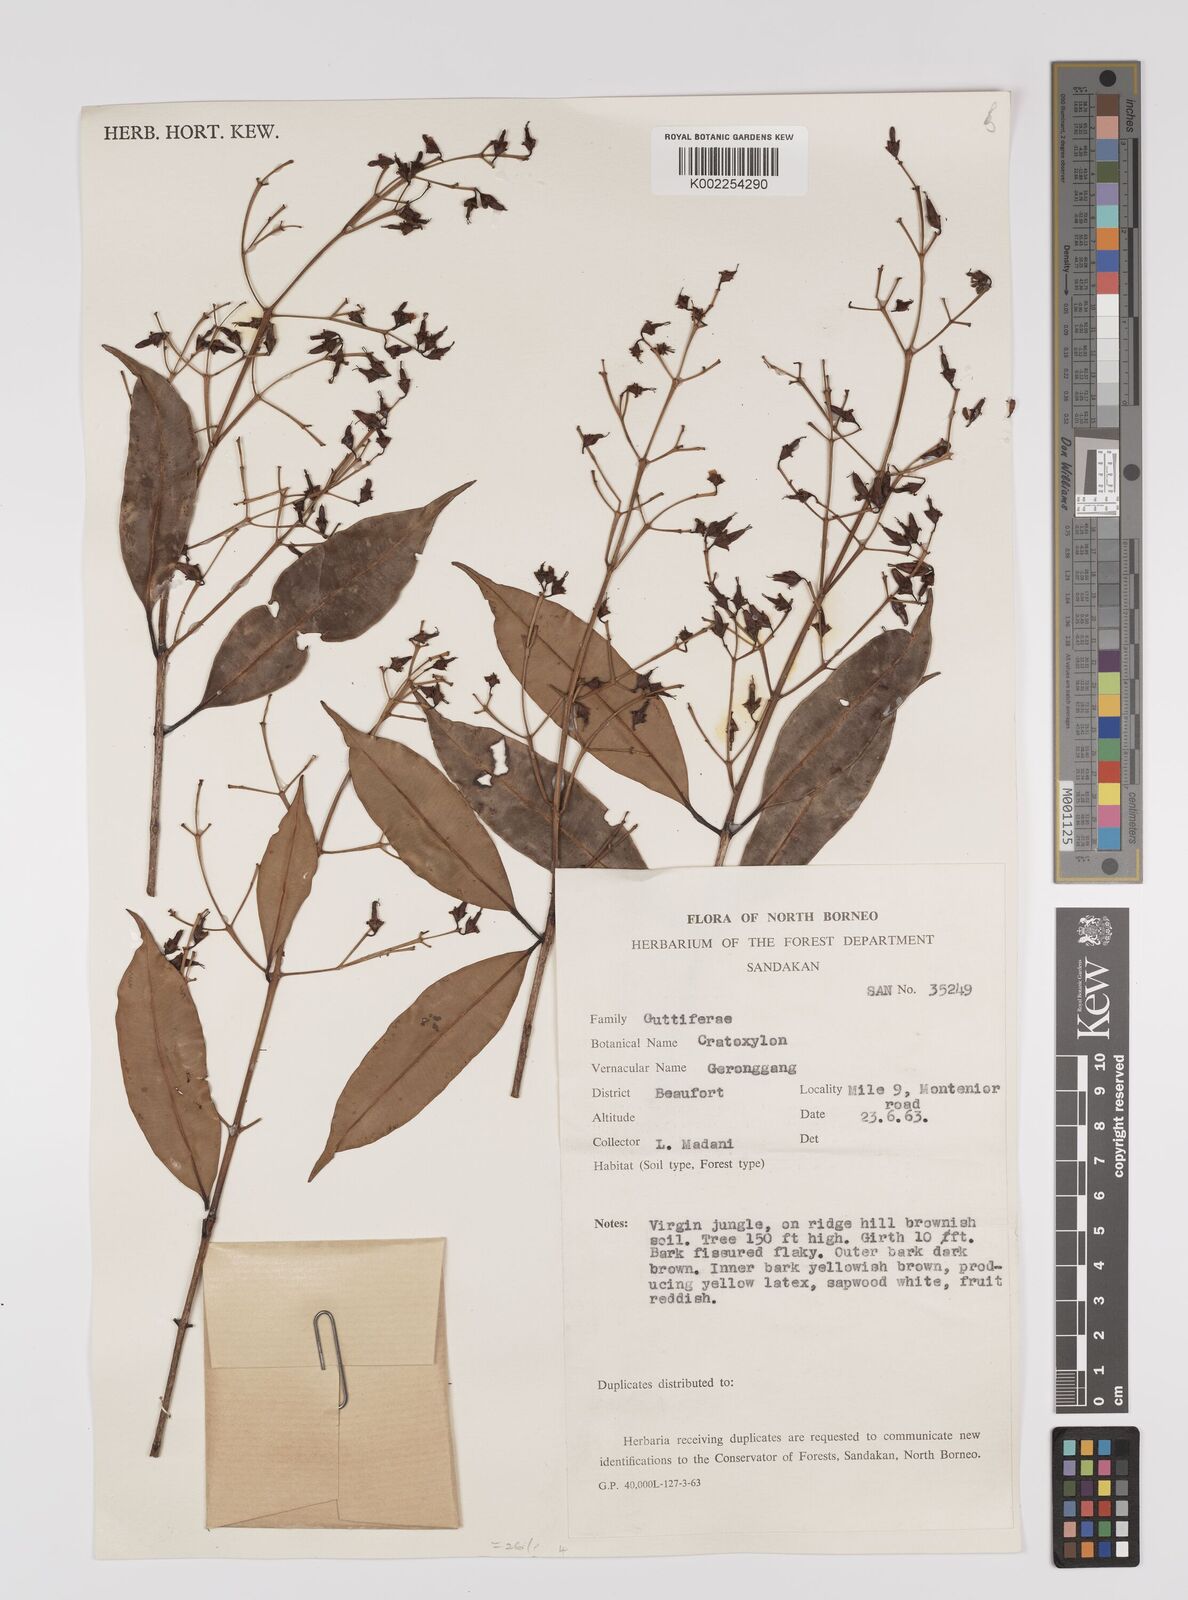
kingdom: Plantae
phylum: Tracheophyta
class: Magnoliopsida
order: Malpighiales
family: Hypericaceae
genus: Cratoxylum
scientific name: Cratoxylum
